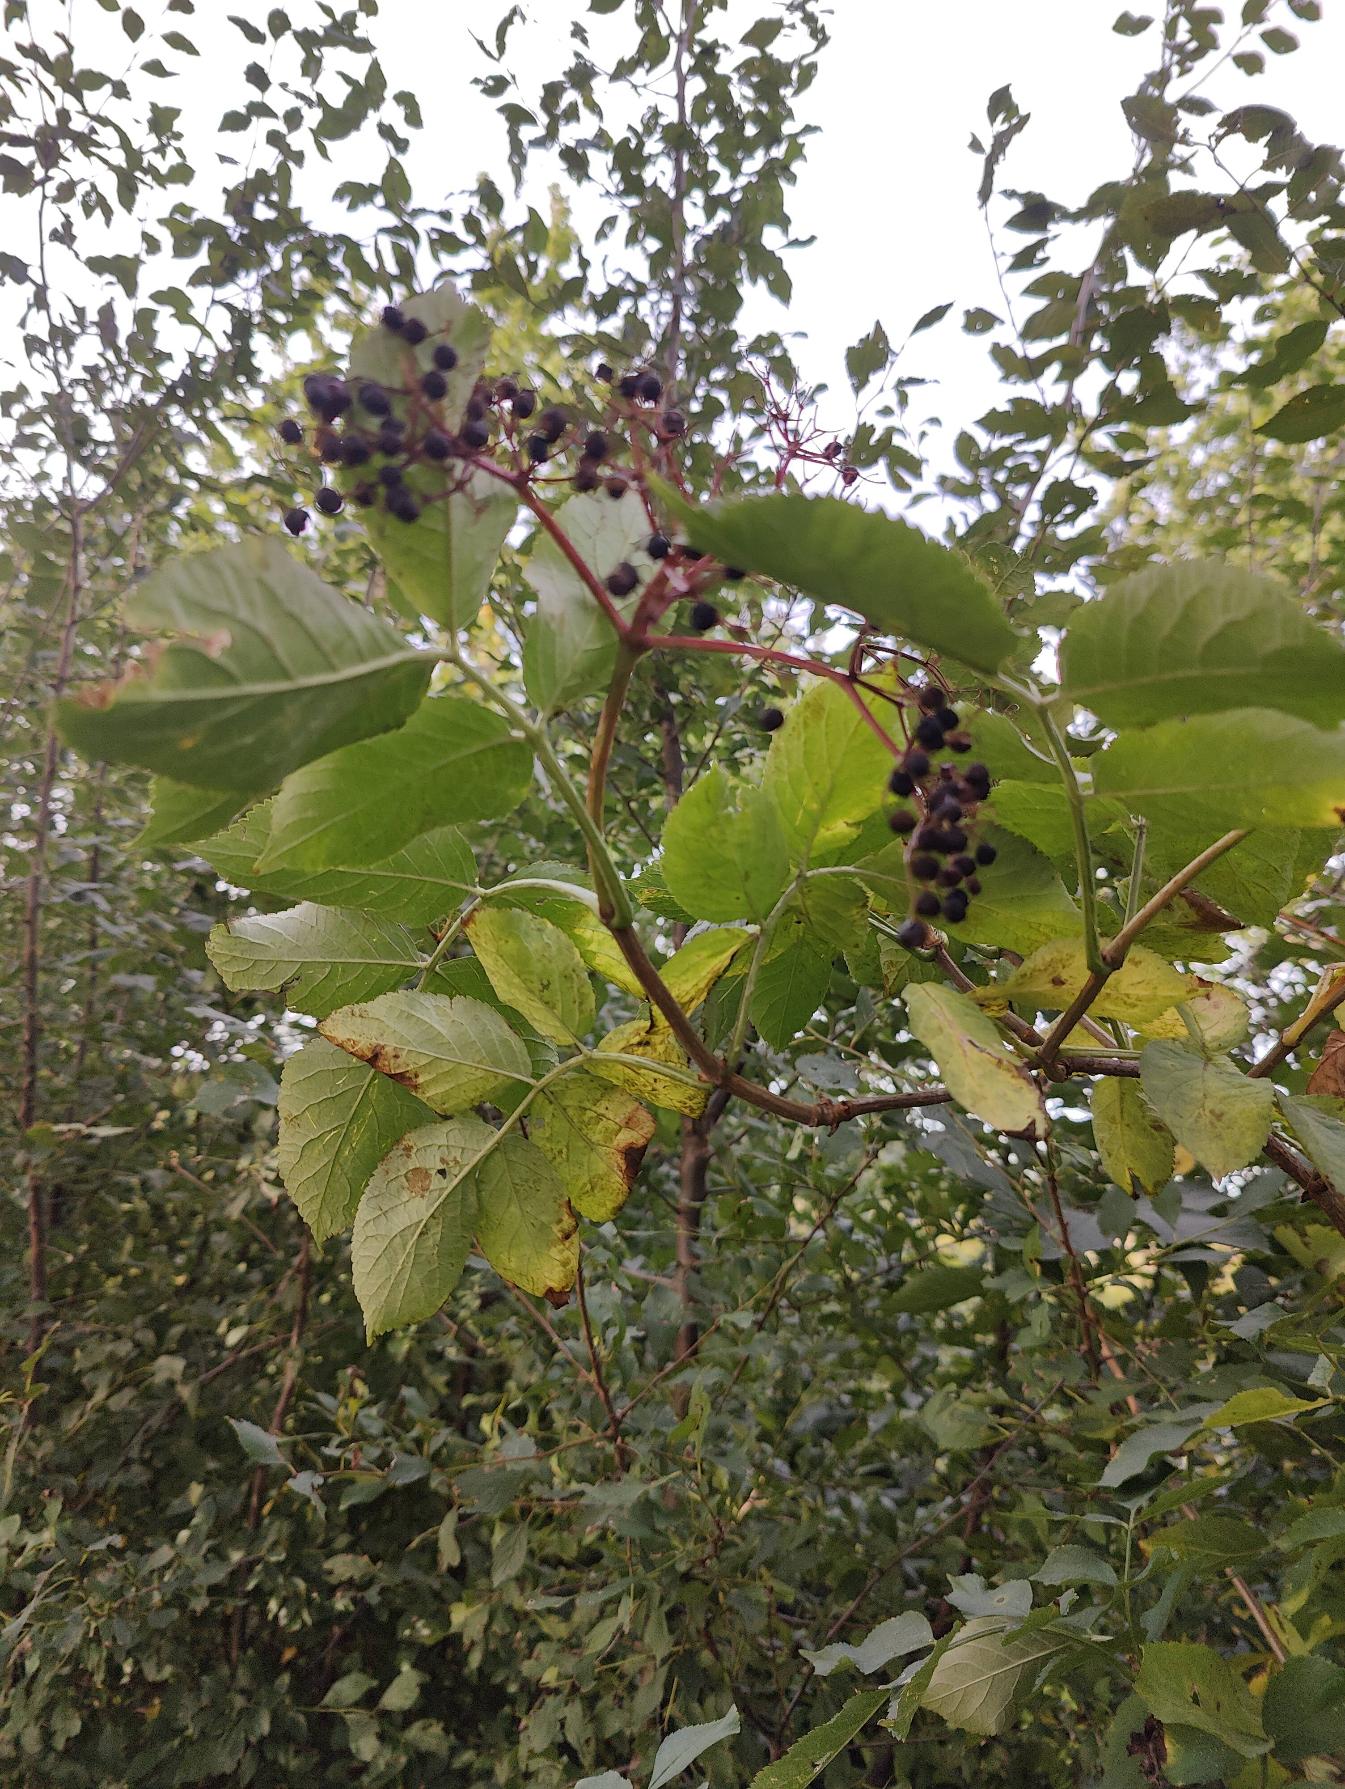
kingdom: Plantae
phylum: Tracheophyta
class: Magnoliopsida
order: Dipsacales
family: Viburnaceae
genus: Sambucus
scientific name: Sambucus nigra
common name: Almindelig hyld
